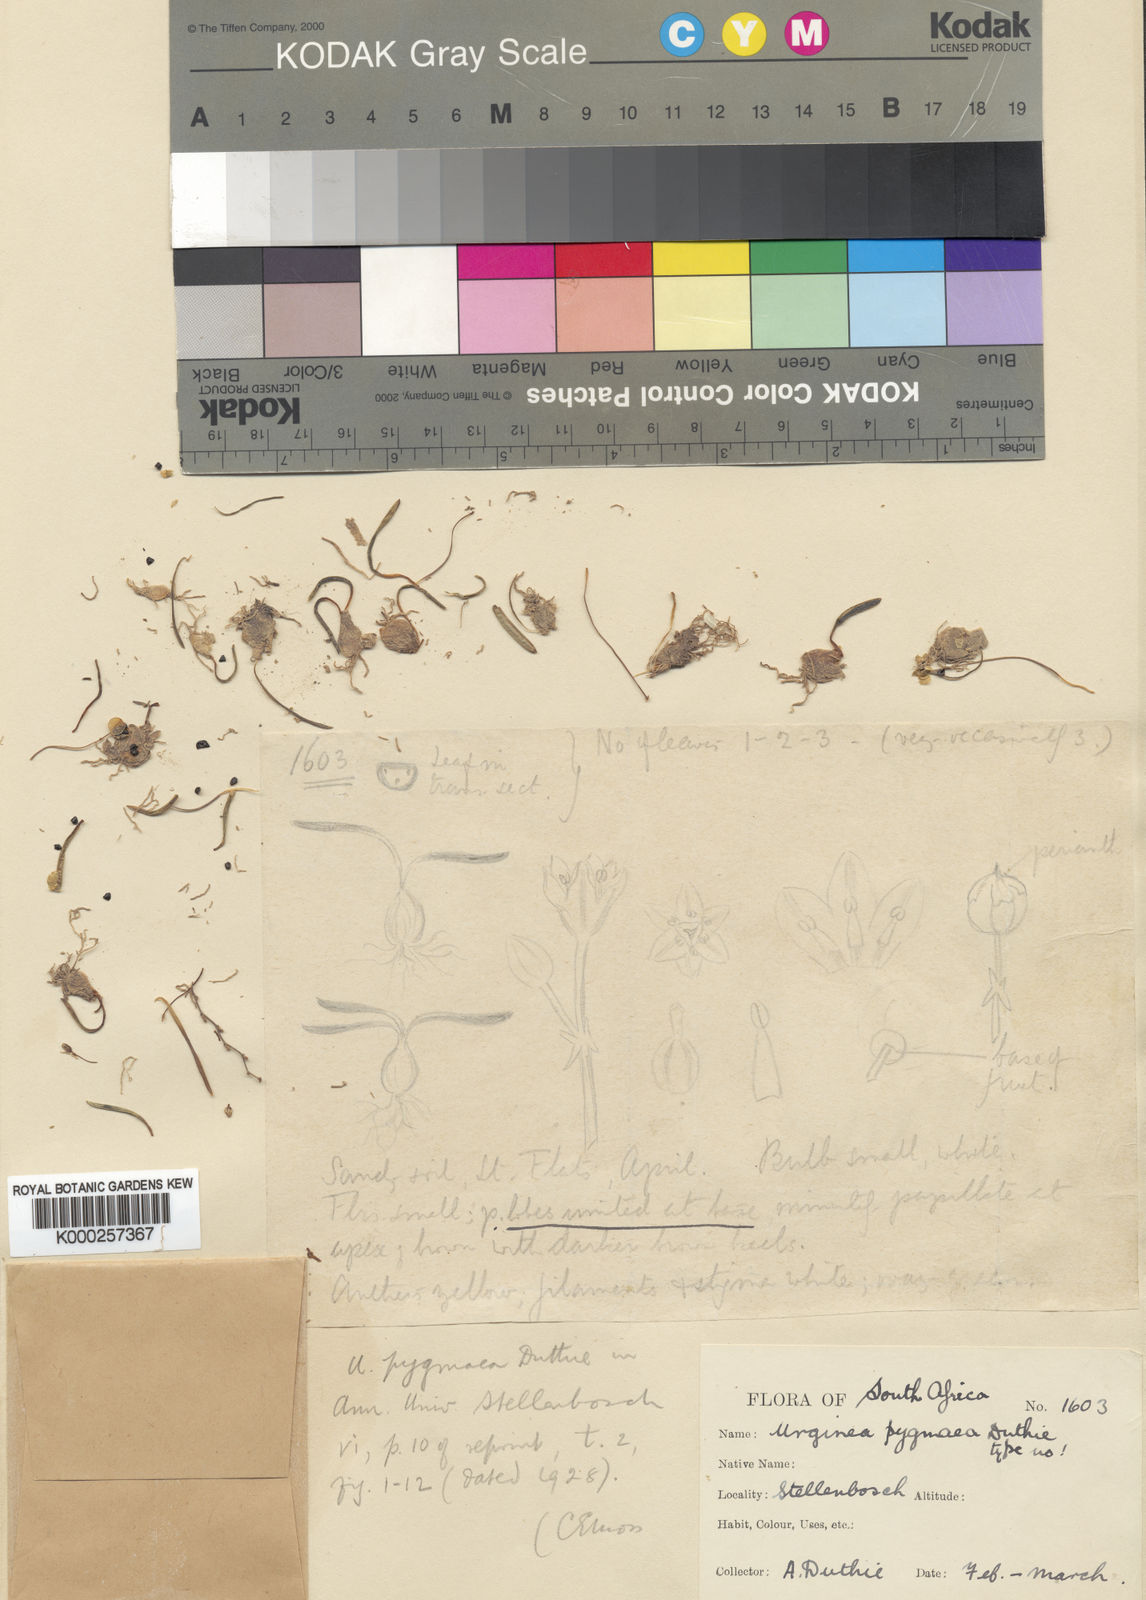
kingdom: Plantae
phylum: Tracheophyta
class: Liliopsida
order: Asparagales
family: Asparagaceae
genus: Drimia
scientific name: Drimia pygmaea
